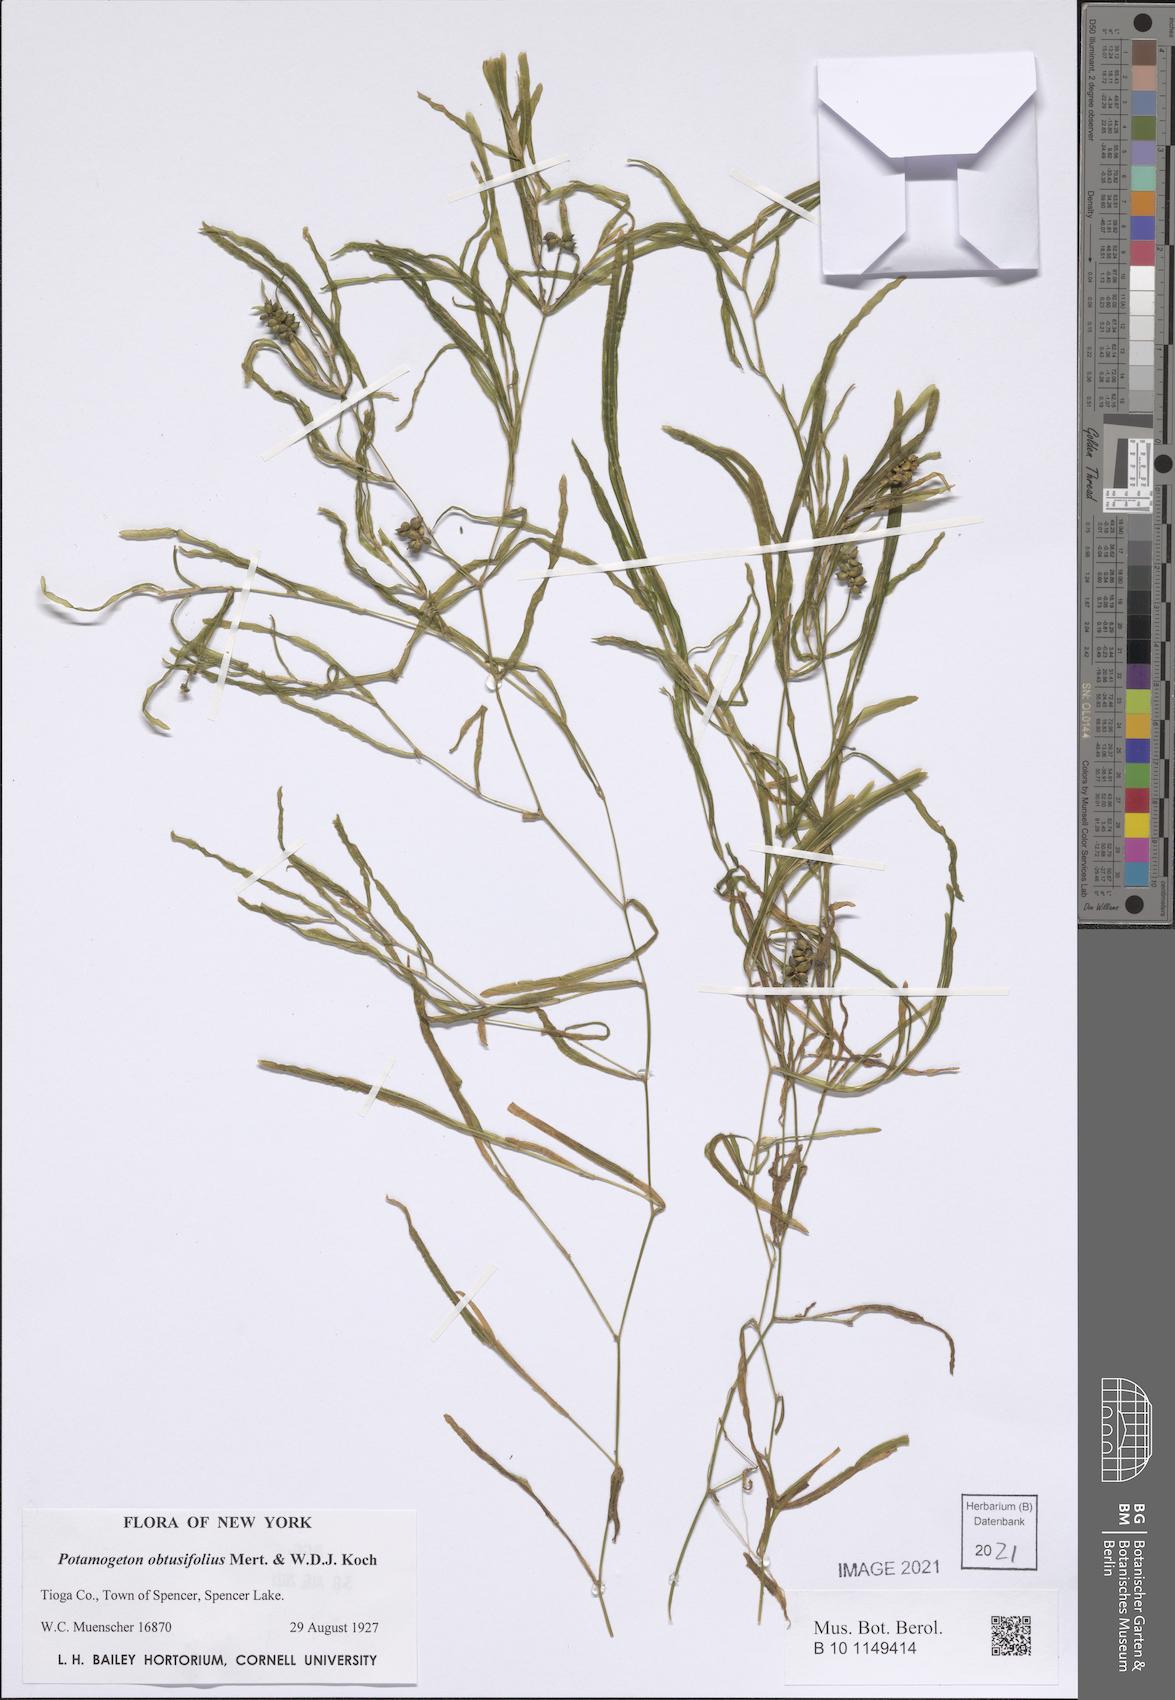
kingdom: Plantae
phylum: Tracheophyta
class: Liliopsida
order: Alismatales
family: Potamogetonaceae
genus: Potamogeton
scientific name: Potamogeton obtusifolius
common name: Blunt-leaved pondweed
